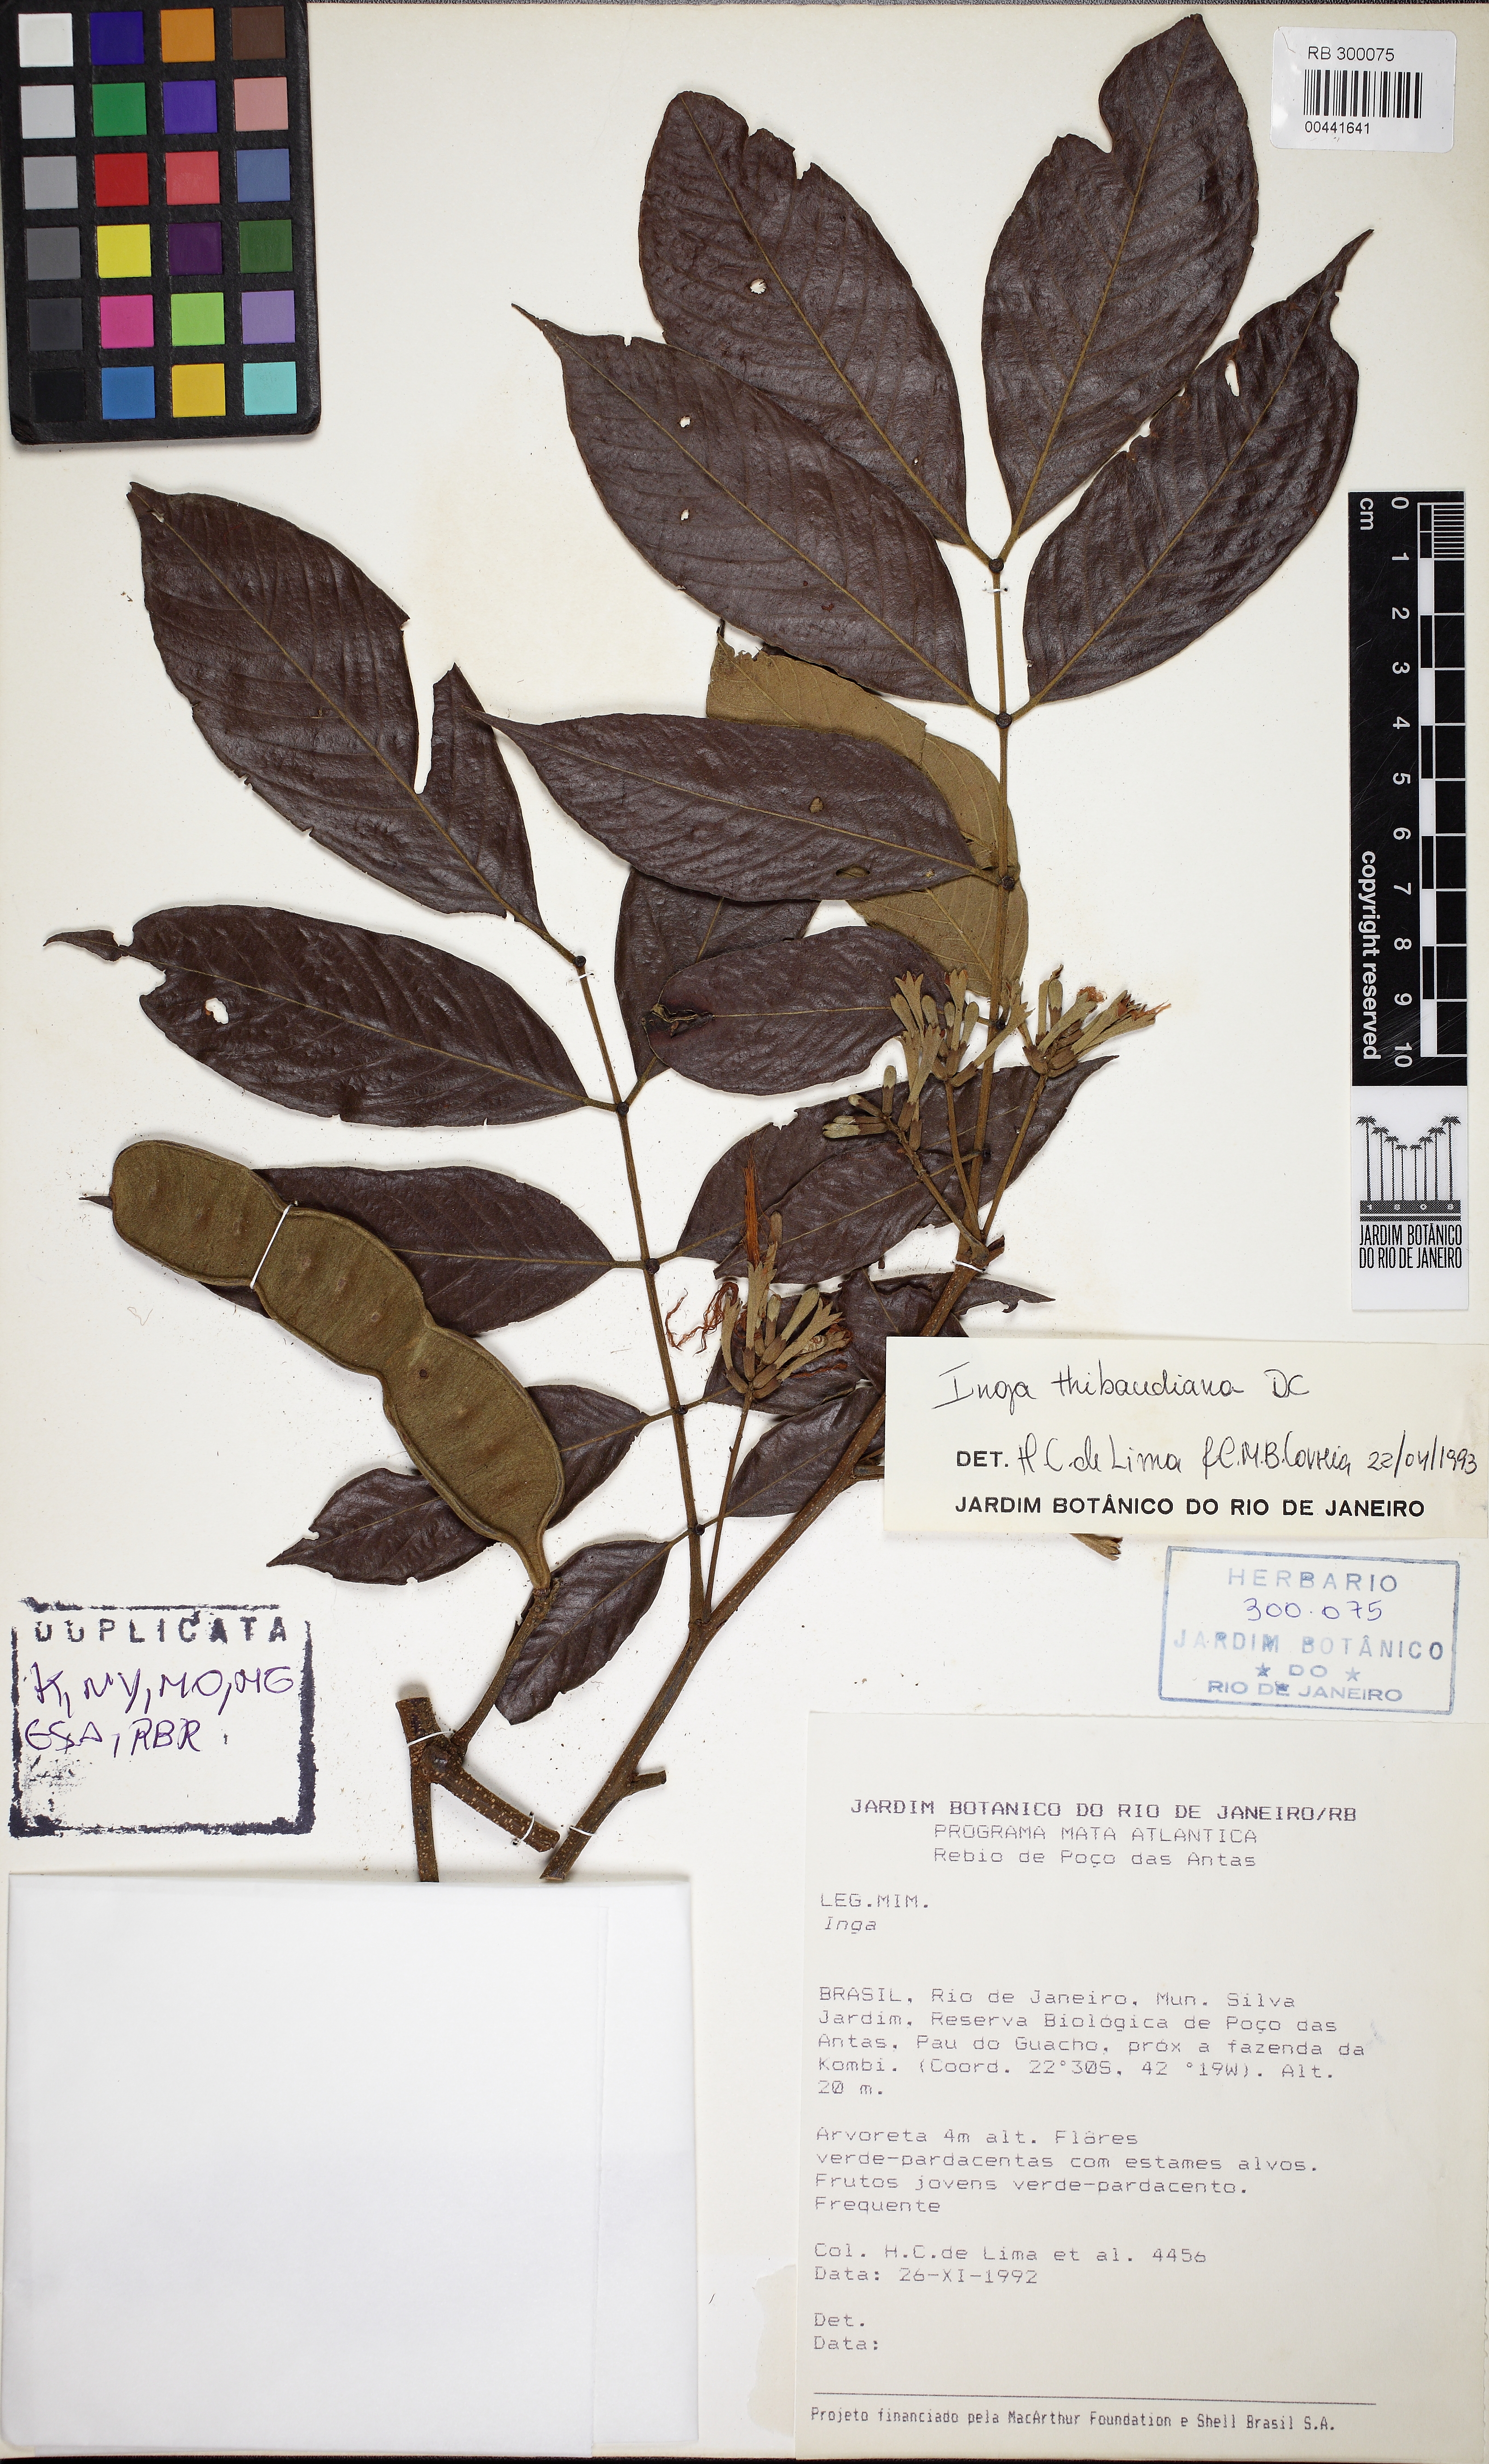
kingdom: Plantae
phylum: Tracheophyta
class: Magnoliopsida
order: Fabales
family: Fabaceae
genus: Inga
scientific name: Inga thibaudiana
